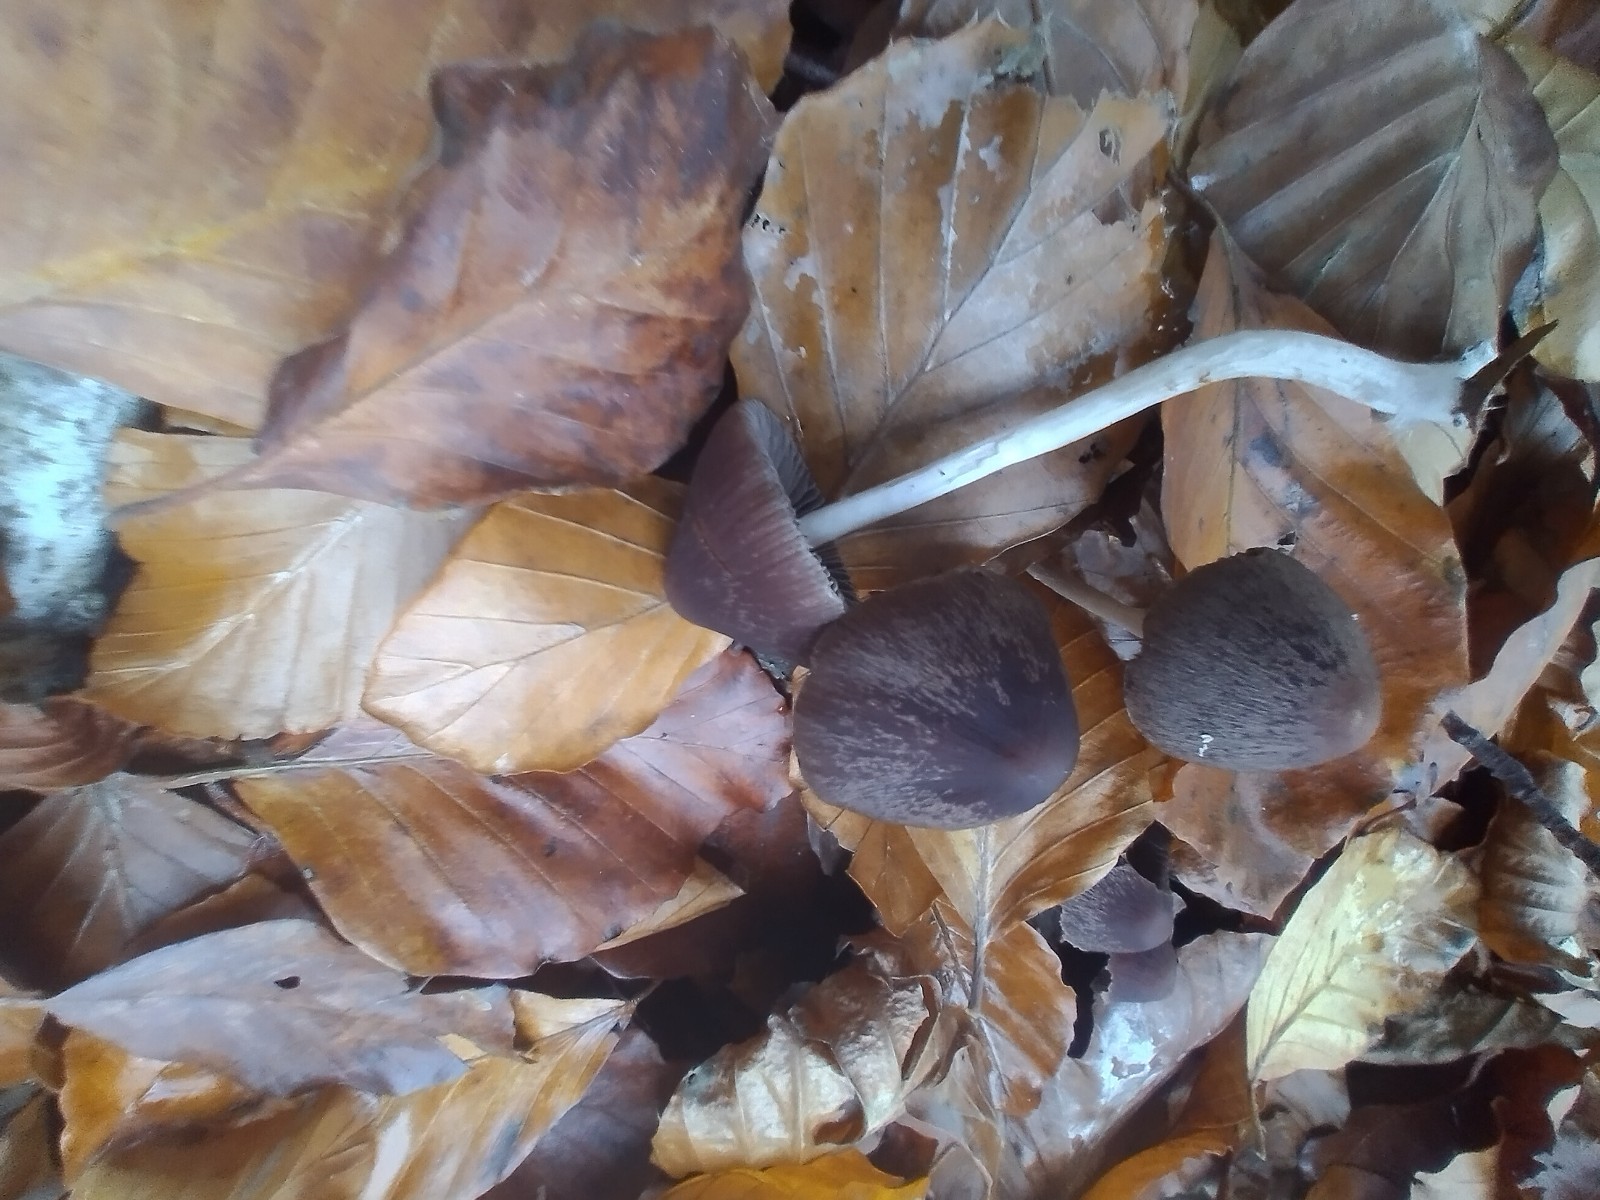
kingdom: Fungi
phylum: Basidiomycota
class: Agaricomycetes
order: Agaricales
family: Psathyrellaceae
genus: Psathyrella
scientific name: Psathyrella bipellis
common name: vinrød mørkhat
